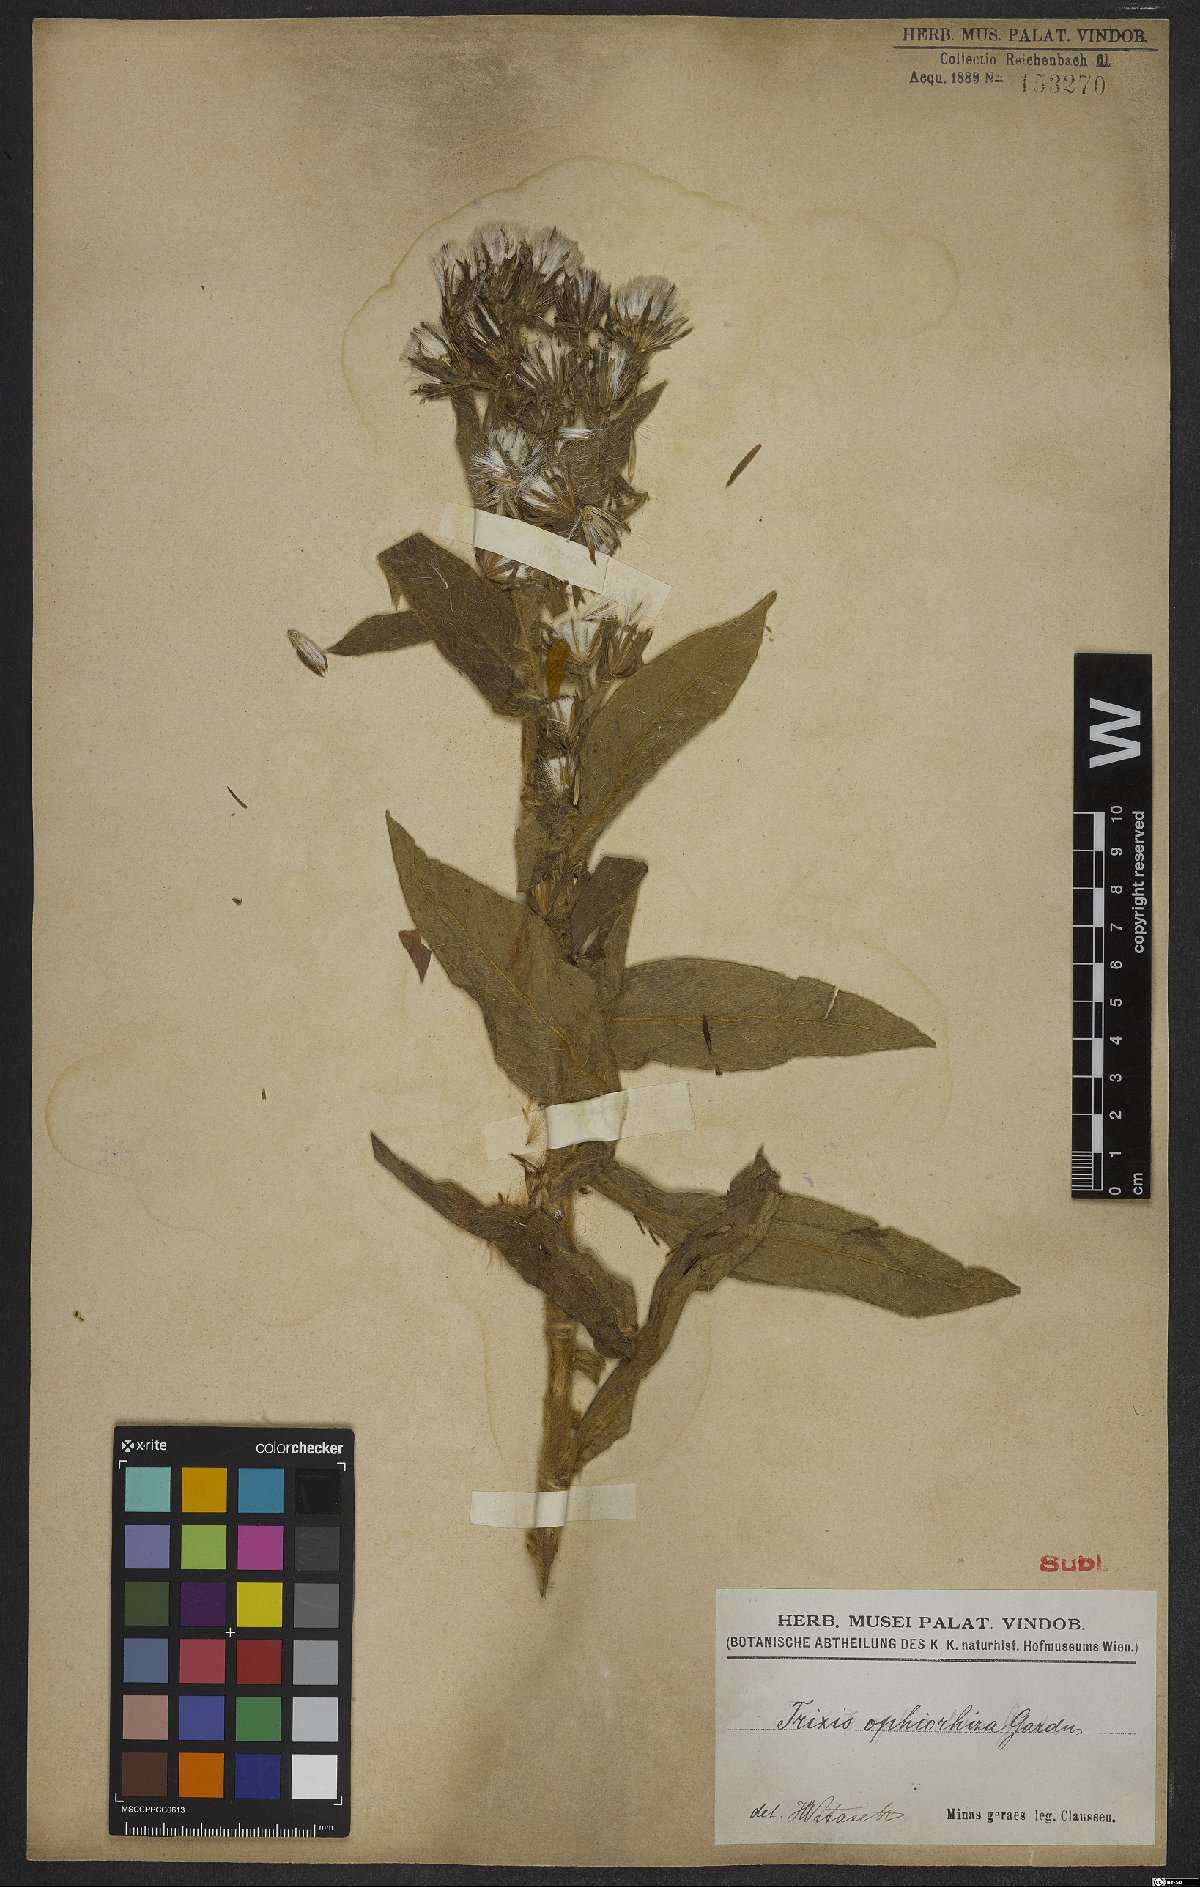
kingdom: Plantae
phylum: Tracheophyta
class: Magnoliopsida
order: Asterales
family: Asteraceae
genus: Trixis
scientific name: Trixis ophiorhiza
